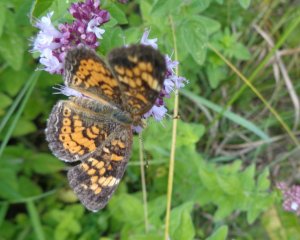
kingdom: Animalia
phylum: Arthropoda
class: Insecta
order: Lepidoptera
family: Nymphalidae
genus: Phyciodes
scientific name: Phyciodes tharos
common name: Pearl Crescent
